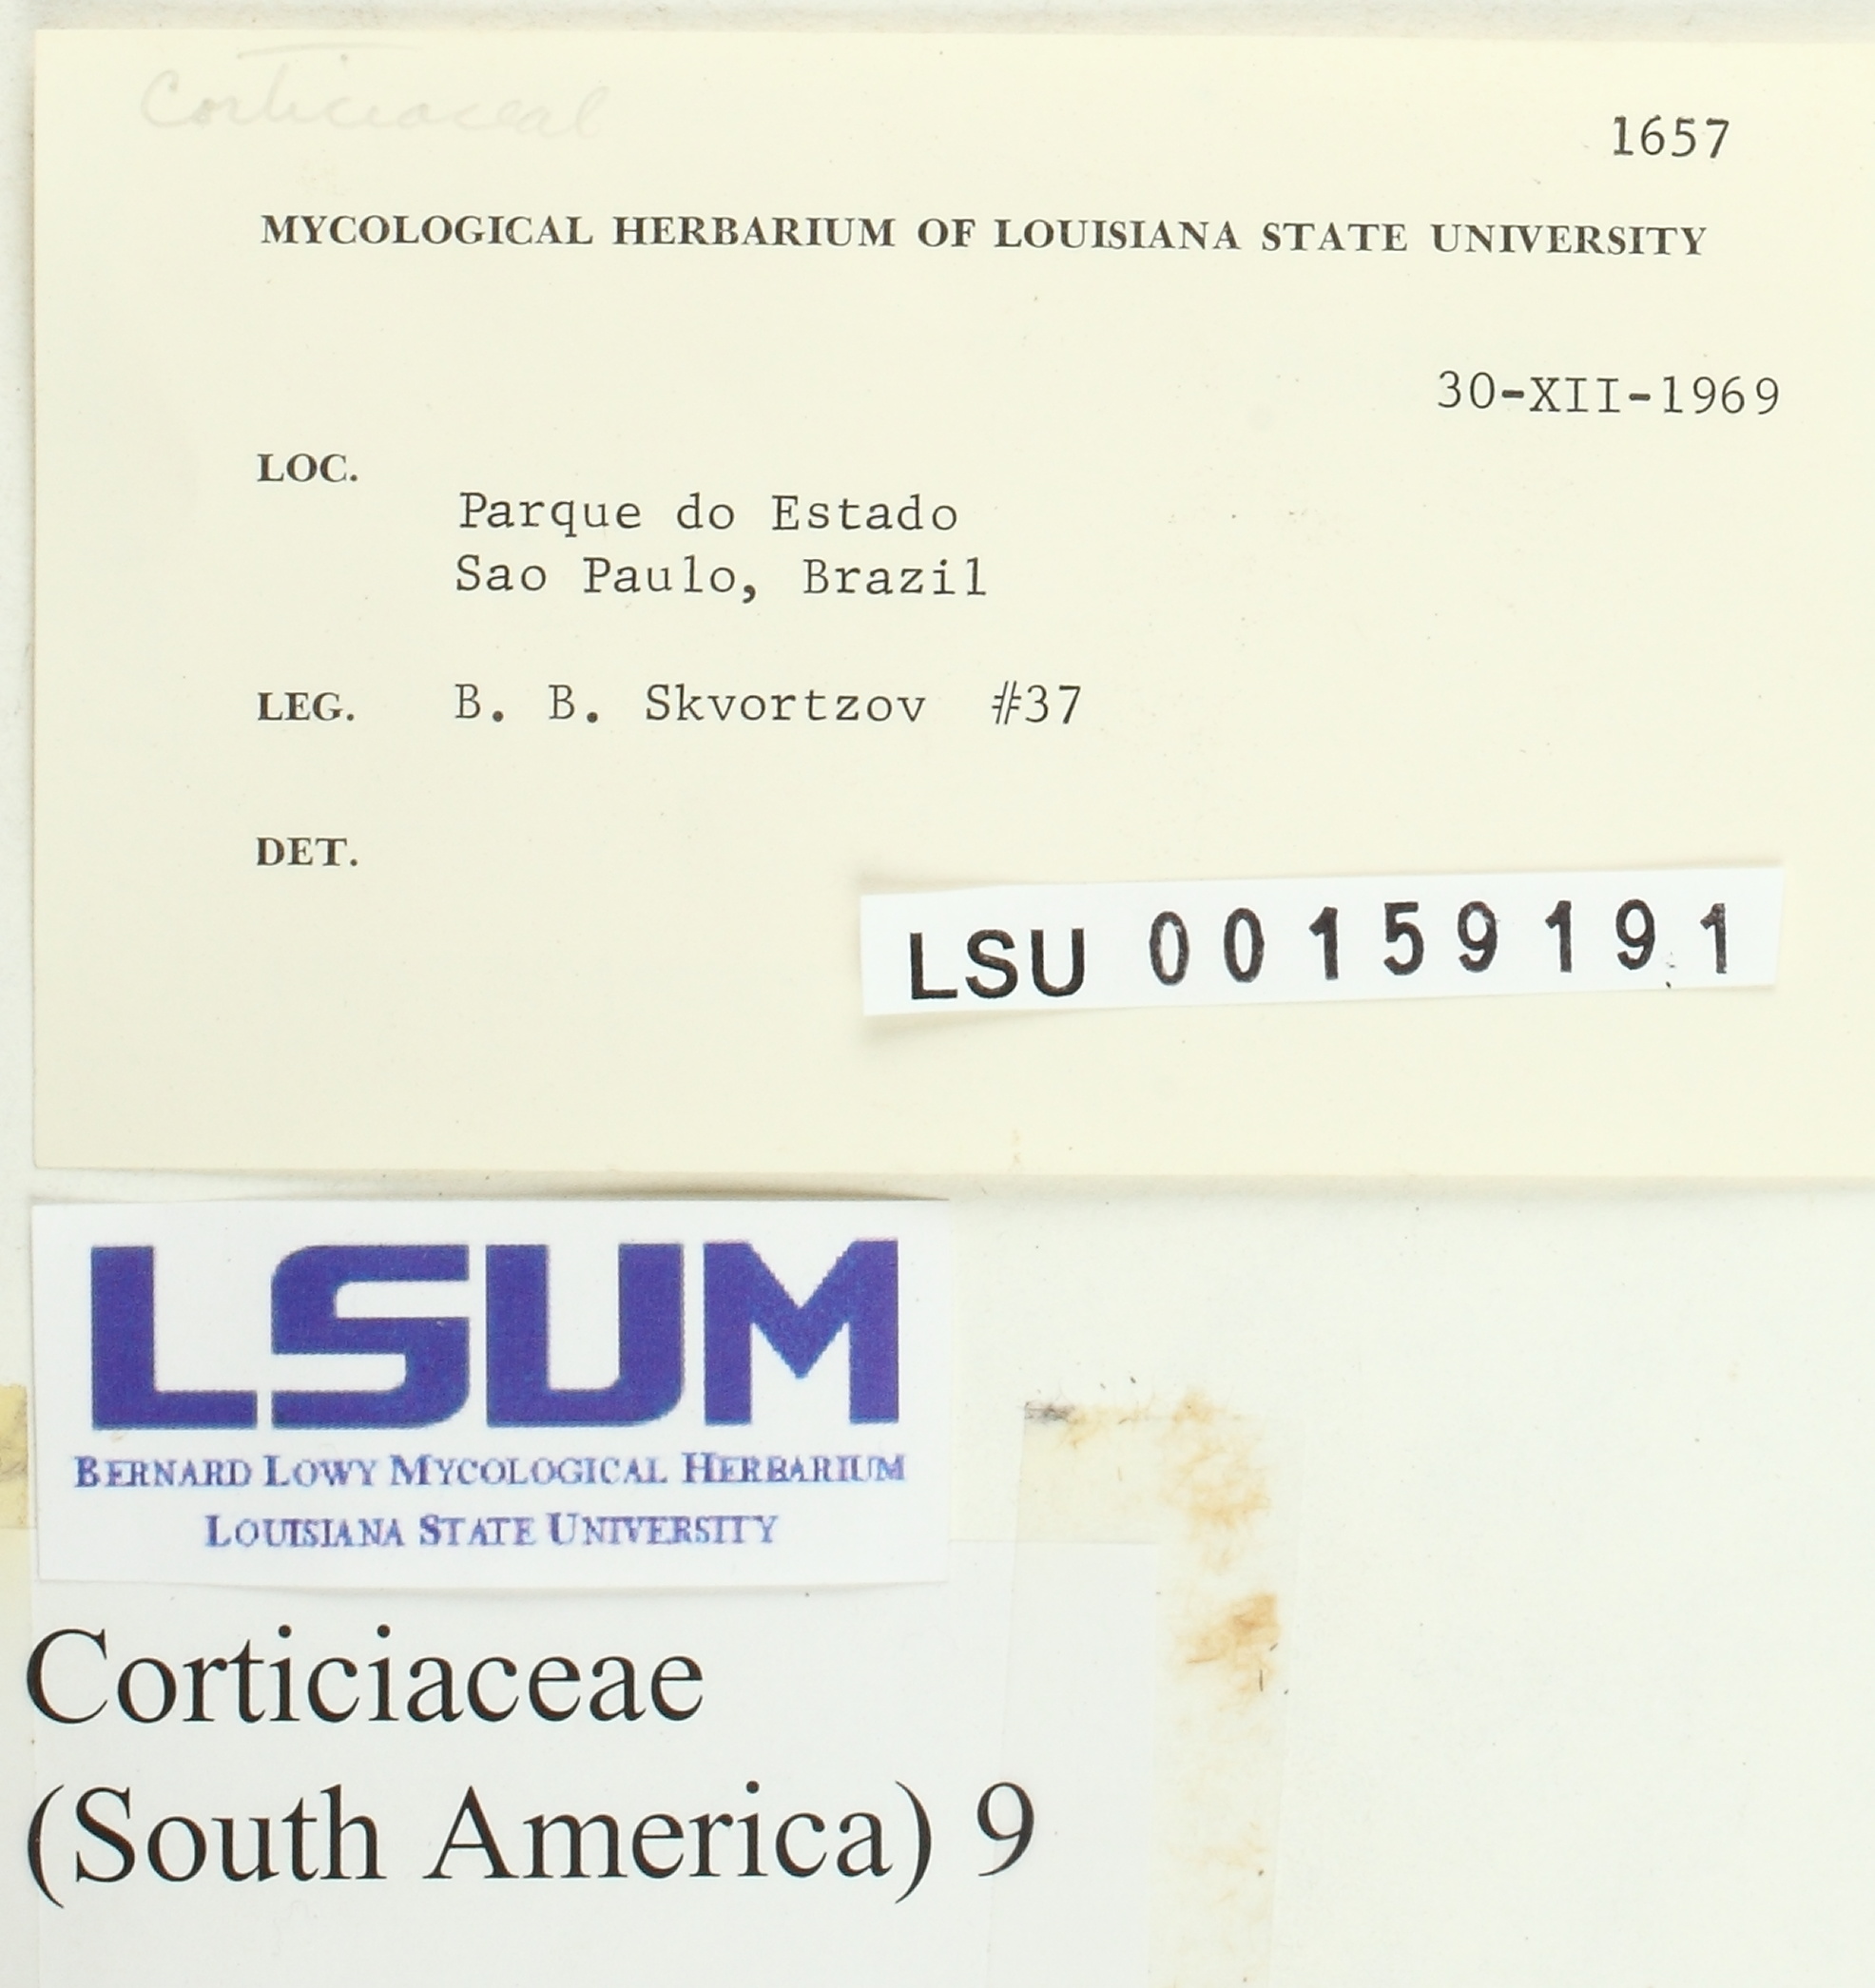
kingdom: Fungi
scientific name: Fungi
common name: Fungi
